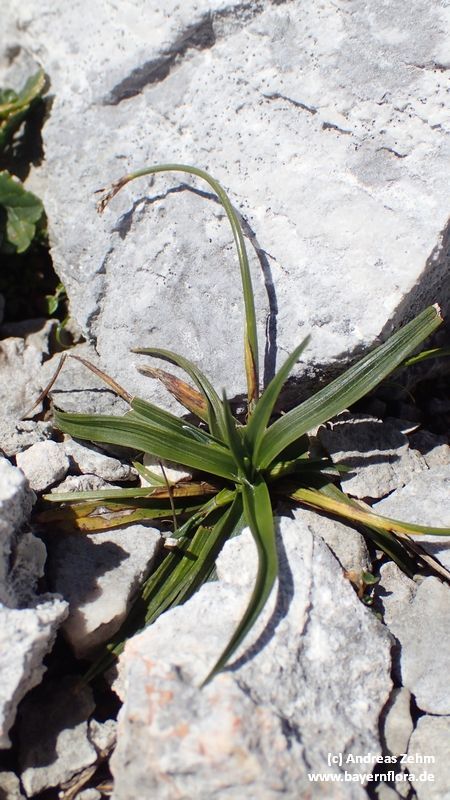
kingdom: Plantae
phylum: Tracheophyta
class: Liliopsida
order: Poales
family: Cyperaceae
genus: Carex
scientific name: Carex ornithopoda
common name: Bird's-foot sedge
